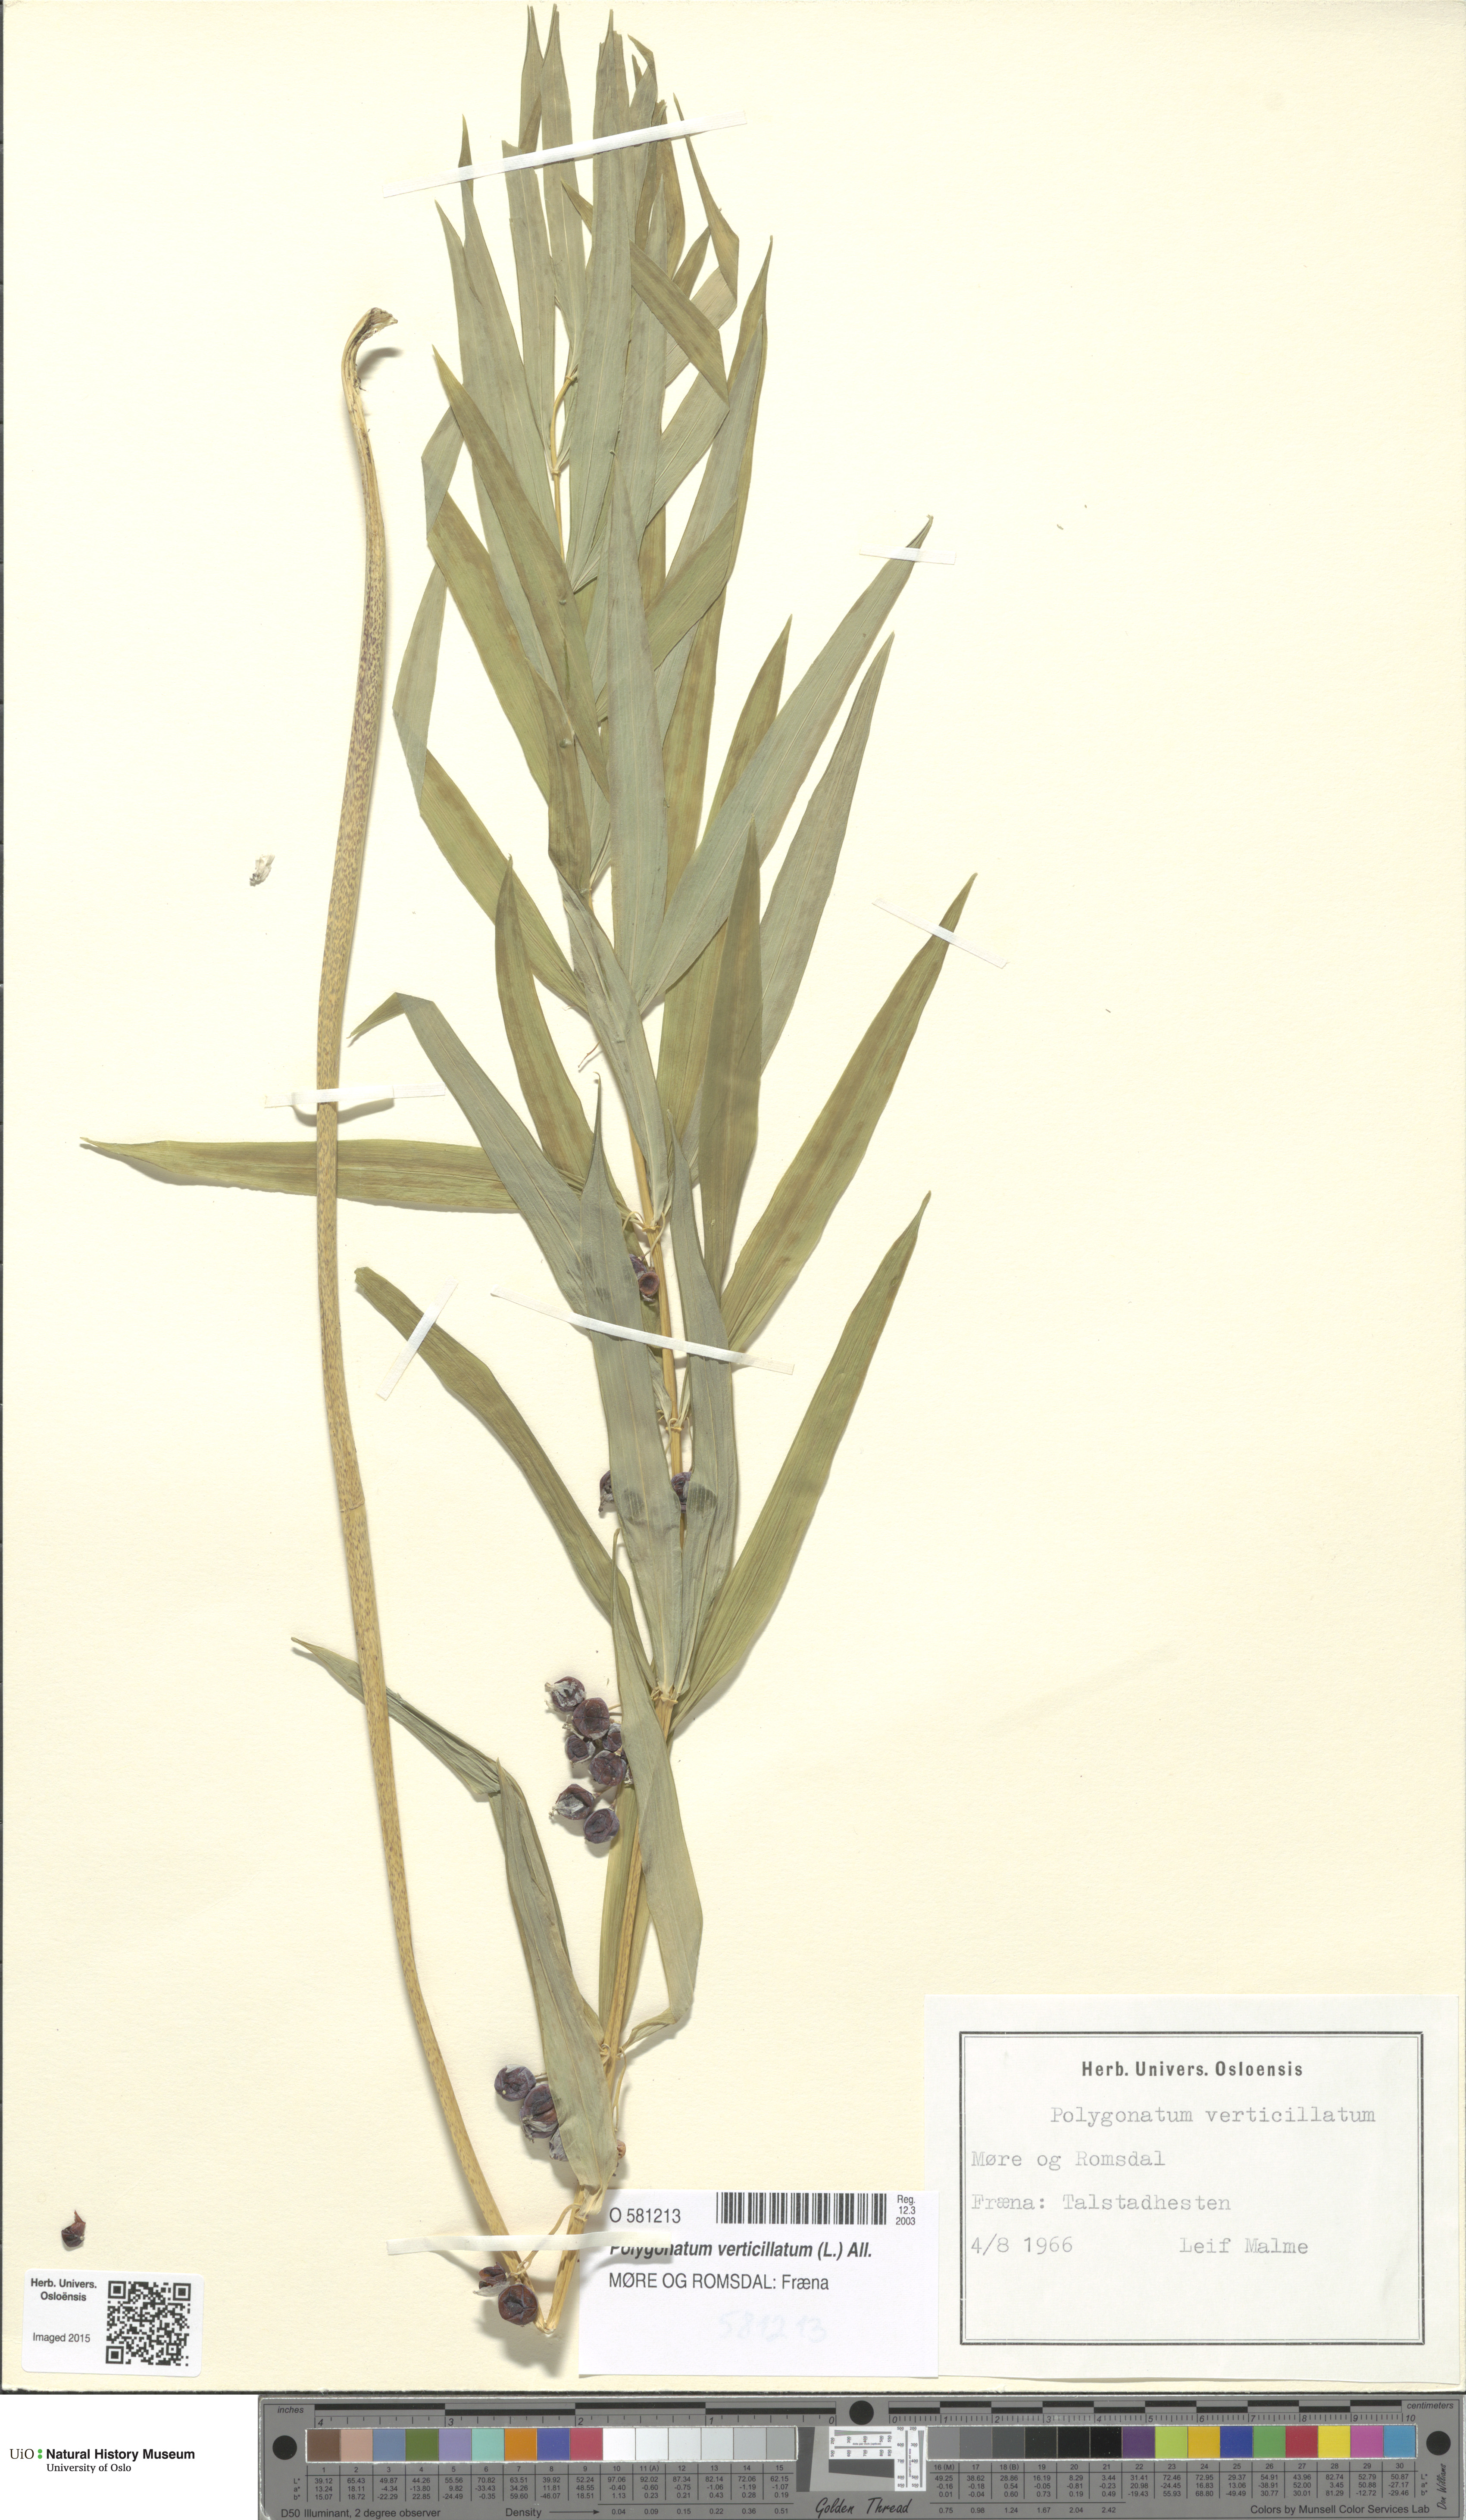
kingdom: Plantae
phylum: Tracheophyta
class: Liliopsida
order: Asparagales
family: Asparagaceae
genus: Polygonatum
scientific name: Polygonatum verticillatum
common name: Whorled solomon's-seal
